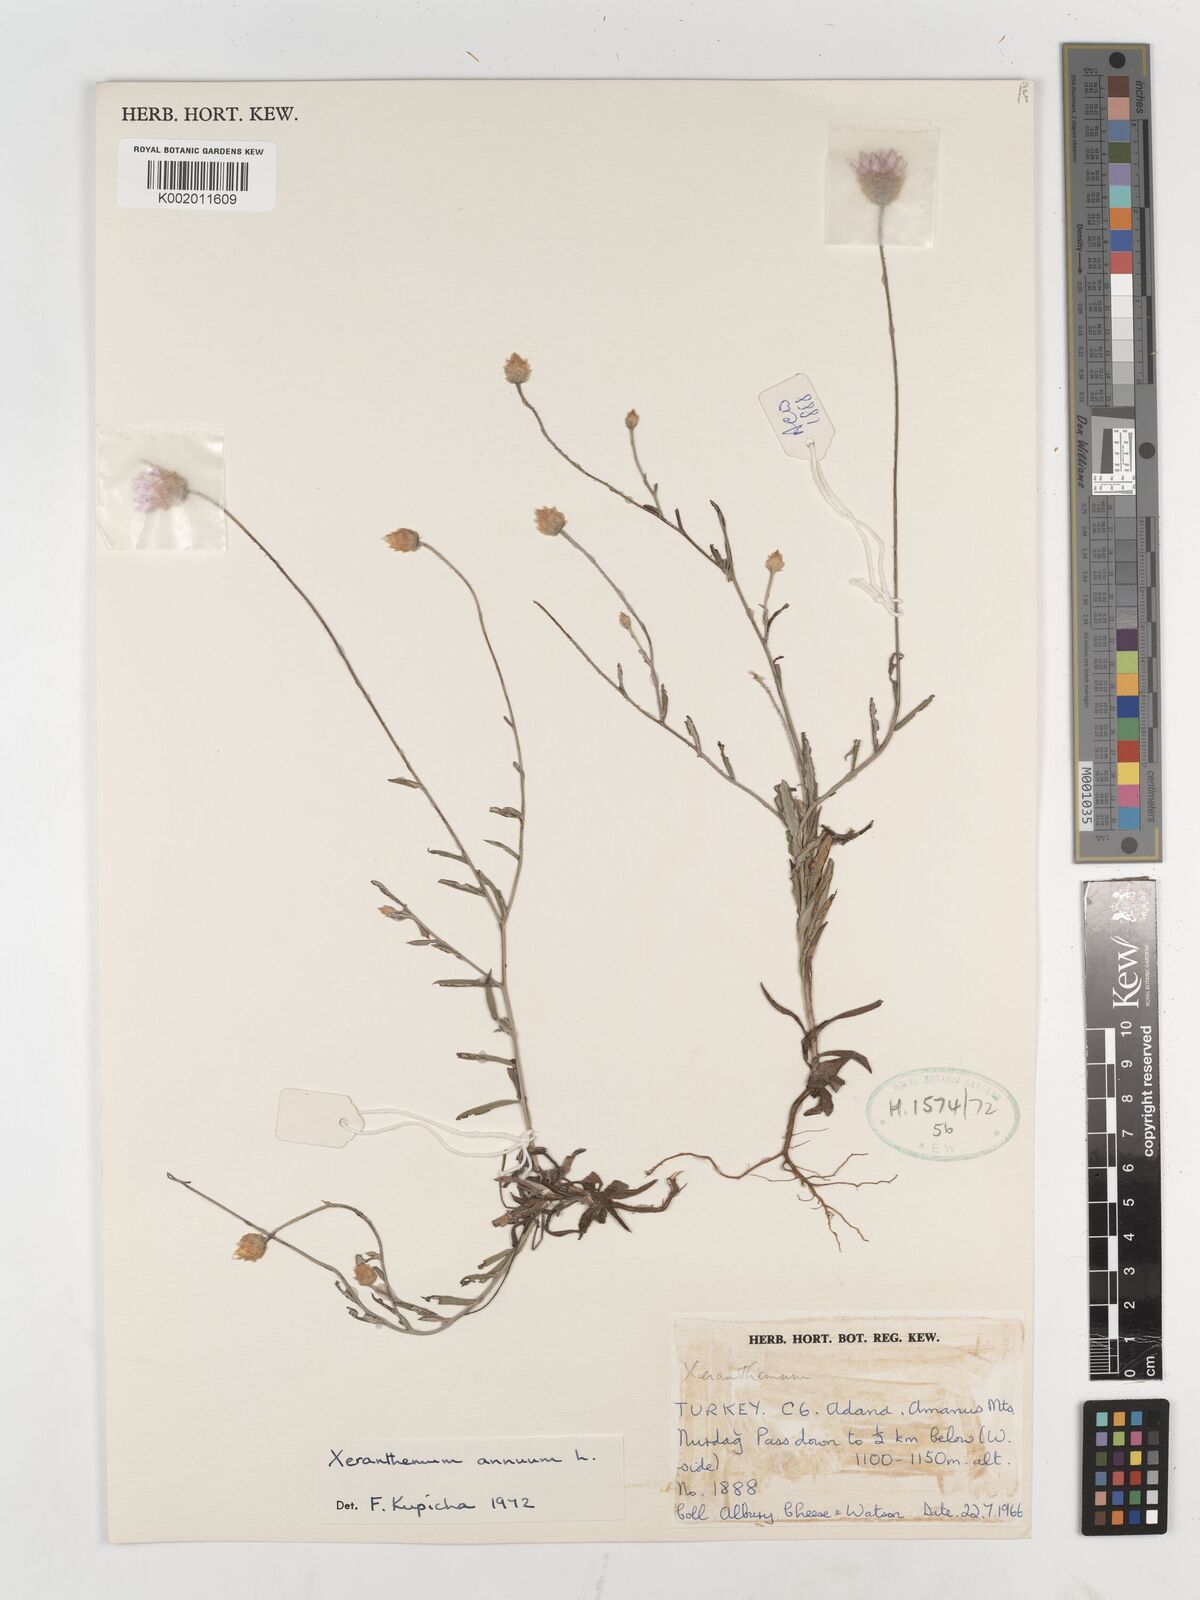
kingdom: Plantae
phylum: Tracheophyta
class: Magnoliopsida
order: Asterales
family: Asteraceae
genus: Xeranthemum
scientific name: Xeranthemum annuum
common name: Immortelle
